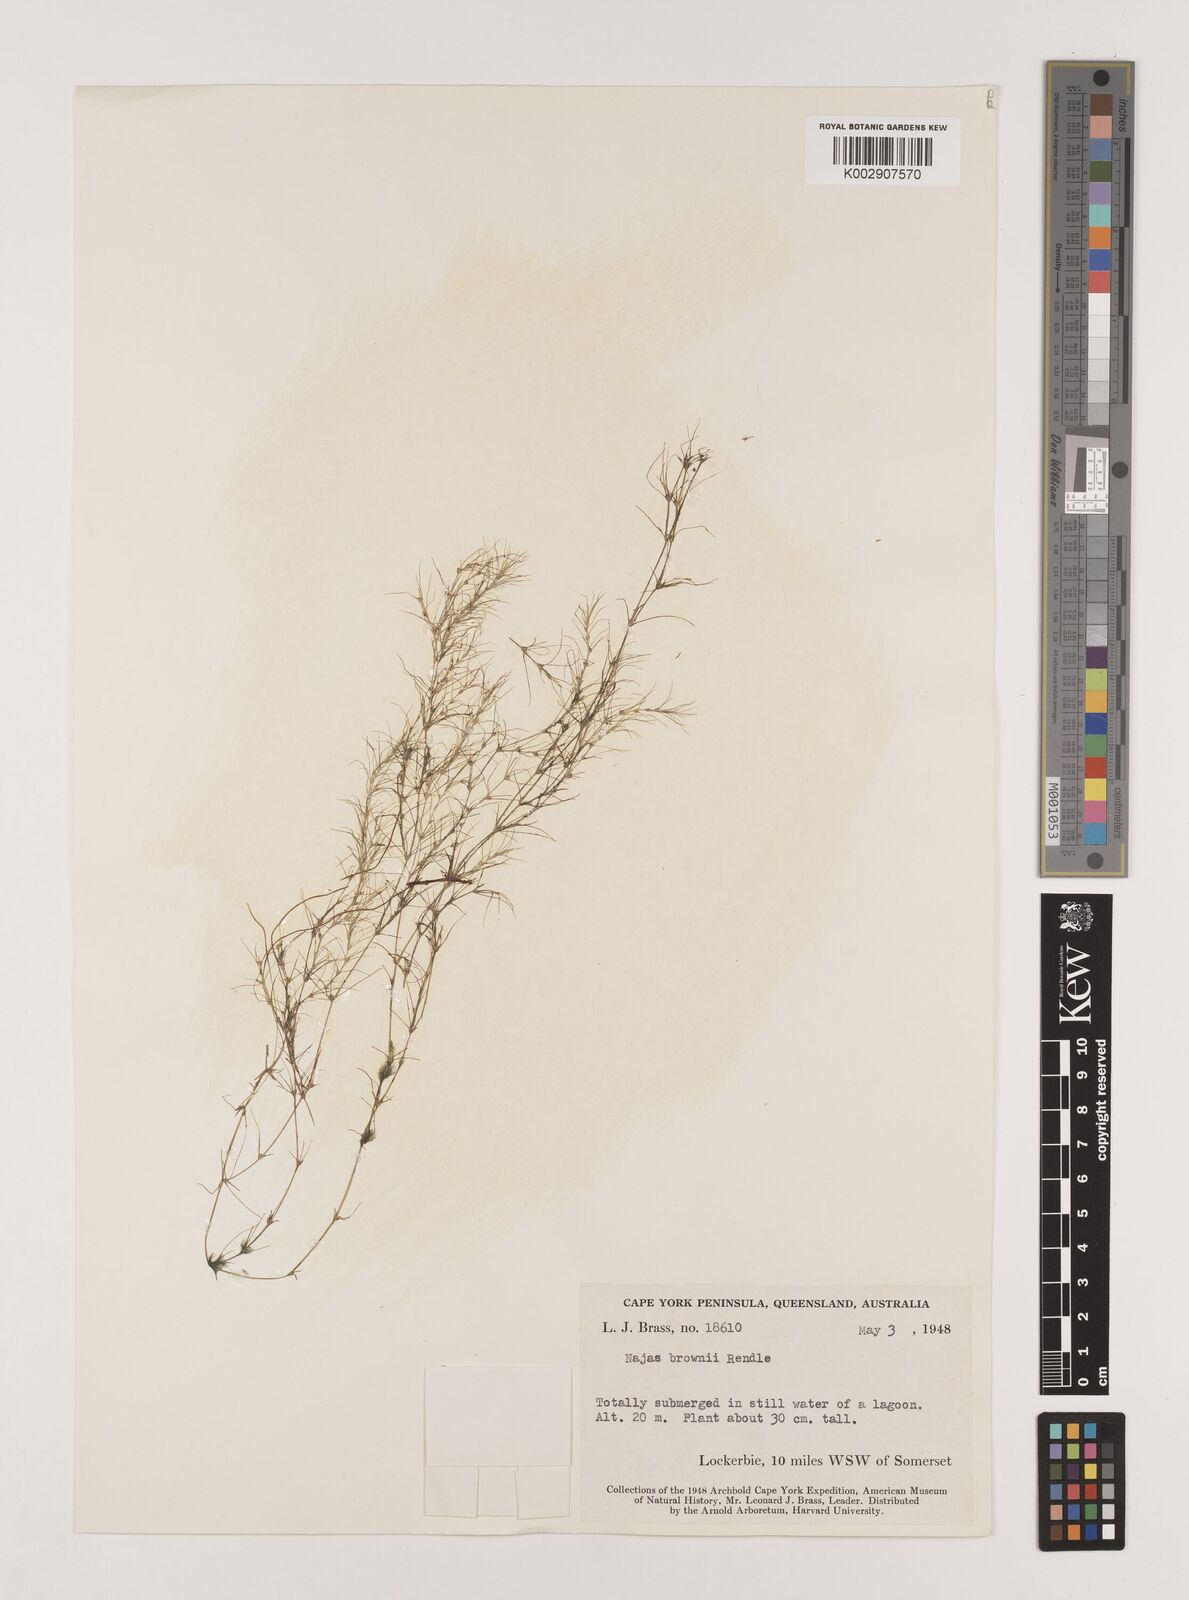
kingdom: Plantae
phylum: Tracheophyta
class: Liliopsida
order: Alismatales
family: Hydrocharitaceae
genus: Najas
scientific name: Najas
